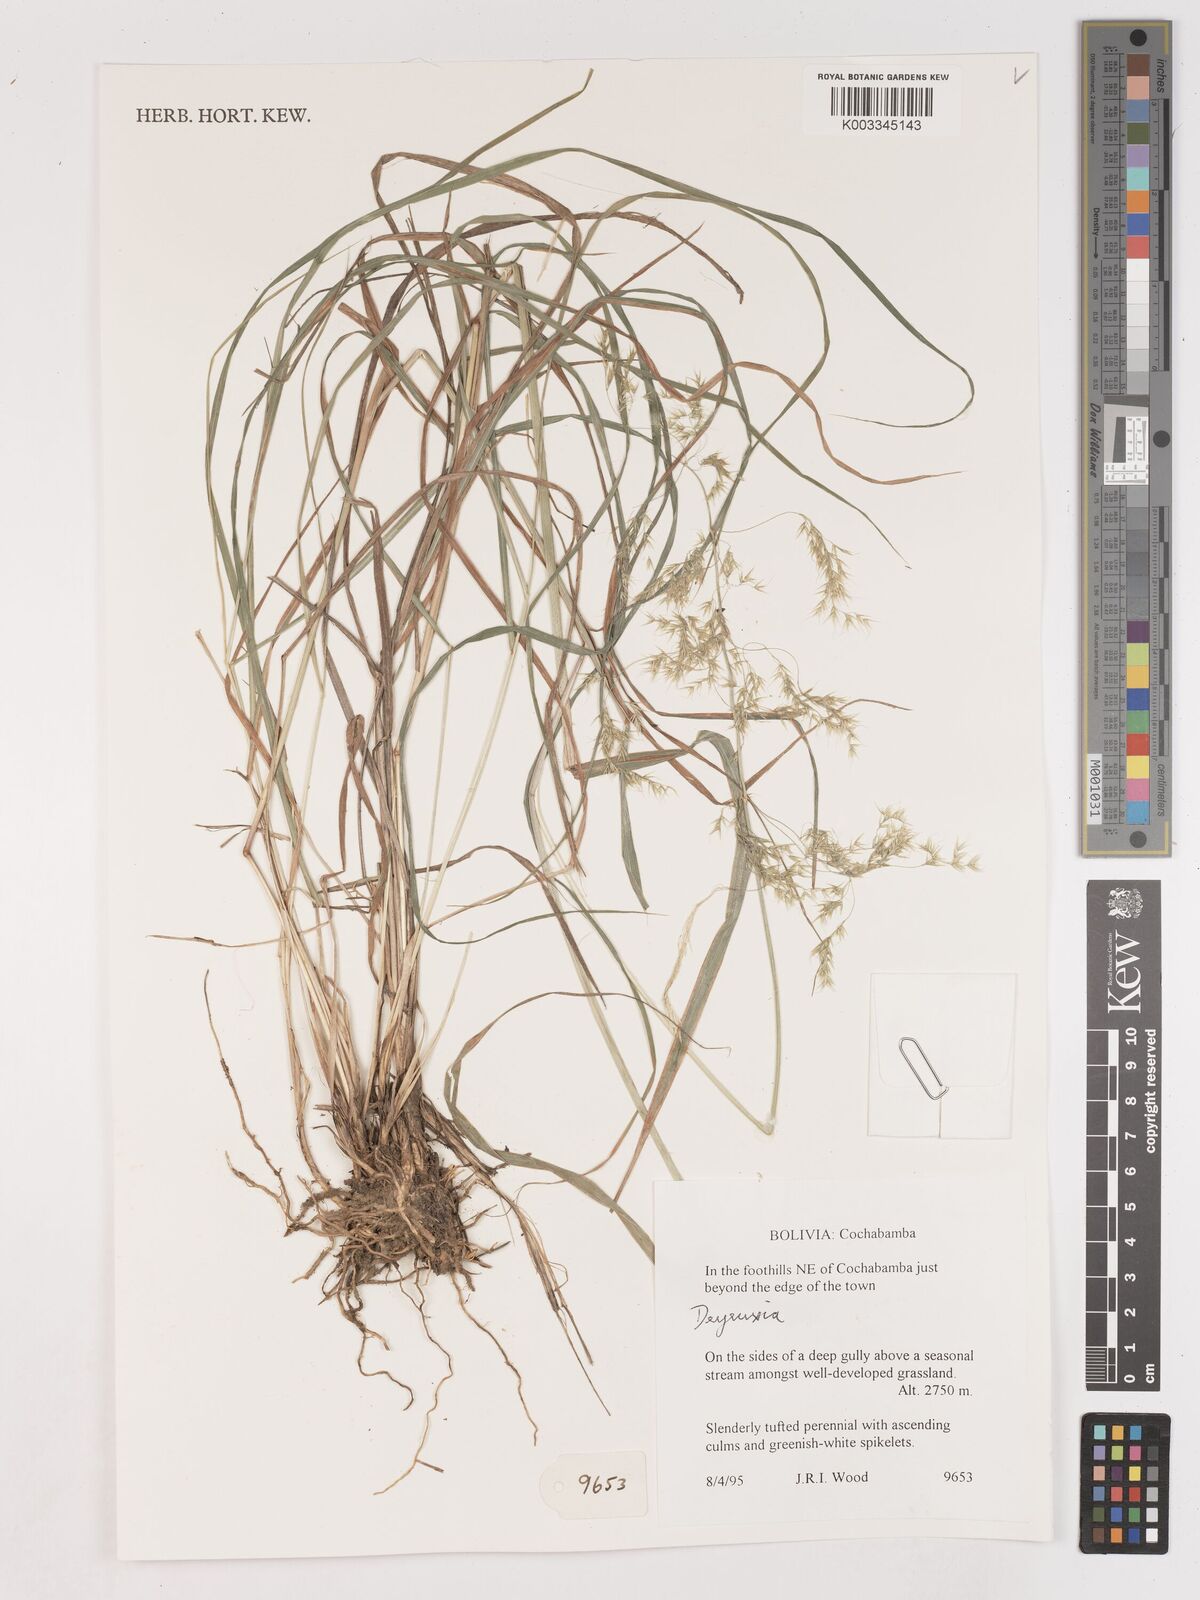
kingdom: Plantae
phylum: Tracheophyta
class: Liliopsida
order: Poales
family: Poaceae
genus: Calamagrostis
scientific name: Calamagrostis
